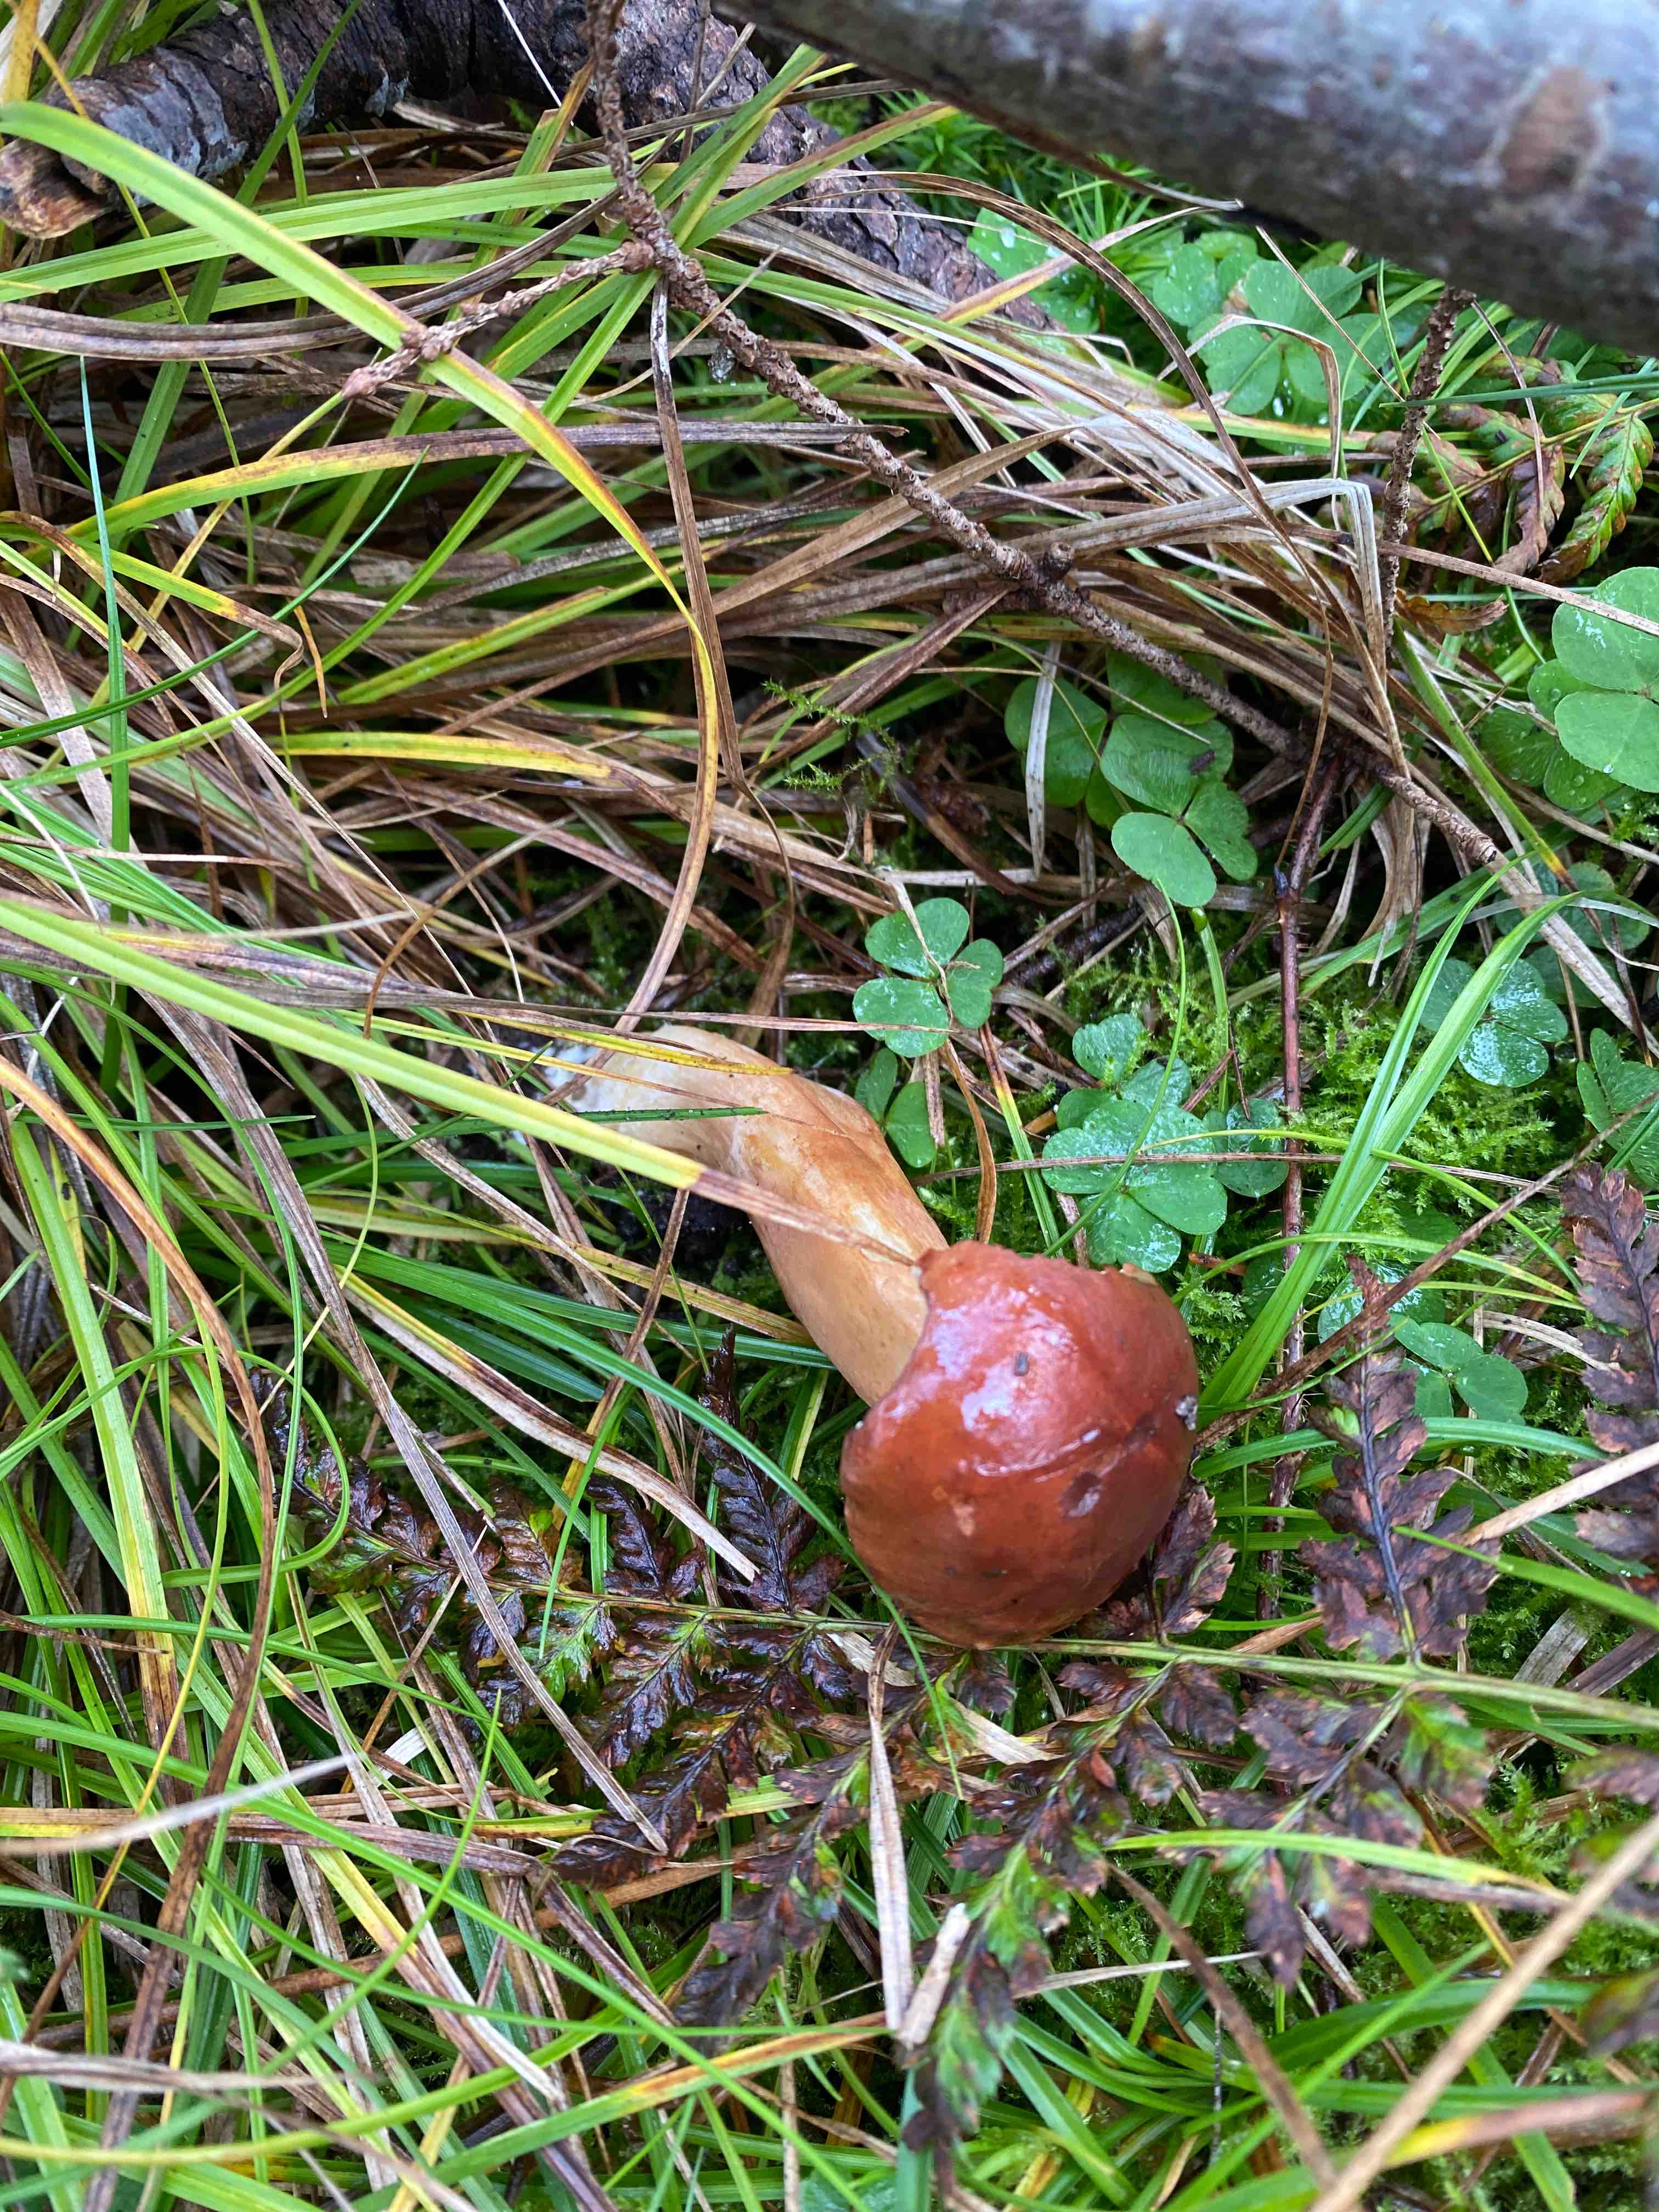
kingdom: Fungi
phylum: Basidiomycota
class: Agaricomycetes
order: Boletales
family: Boletaceae
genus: Imleria
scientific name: Imleria badia
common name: brunstokket rørhat
